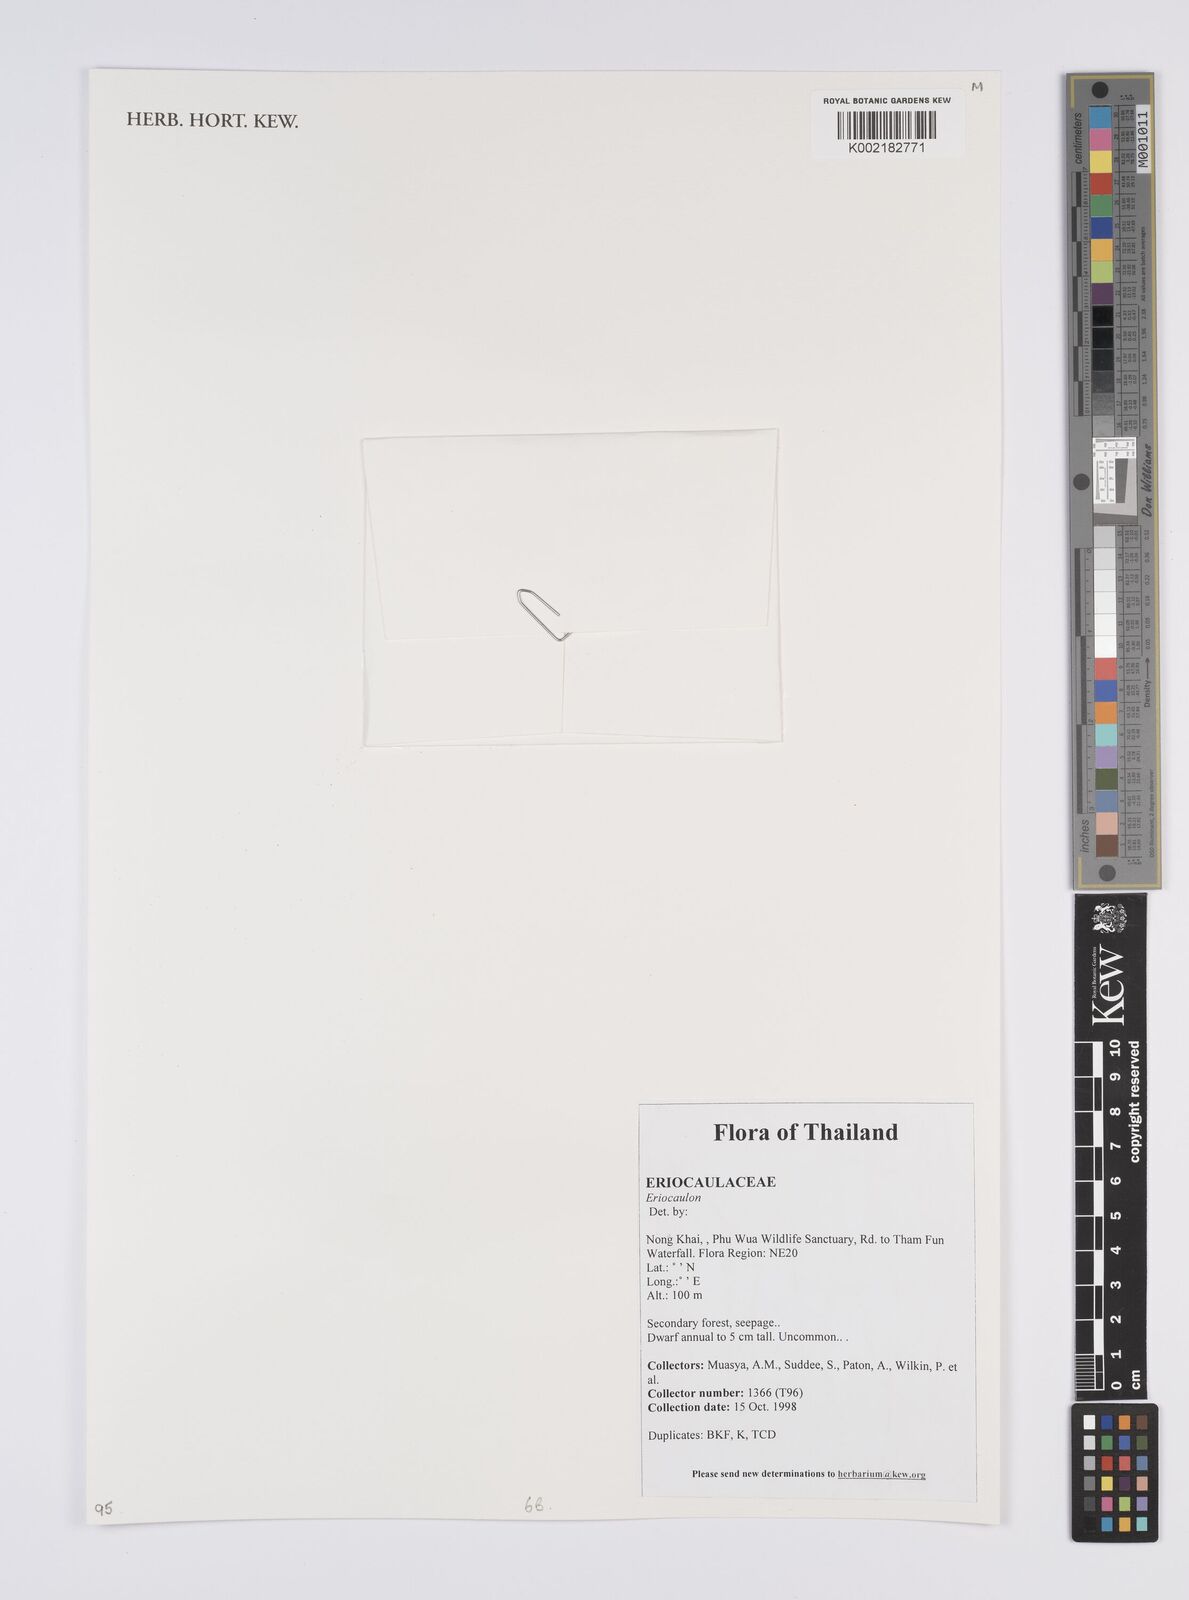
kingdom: Plantae
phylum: Tracheophyta
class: Liliopsida
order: Poales
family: Eriocaulaceae
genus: Eriocaulon
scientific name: Eriocaulon
